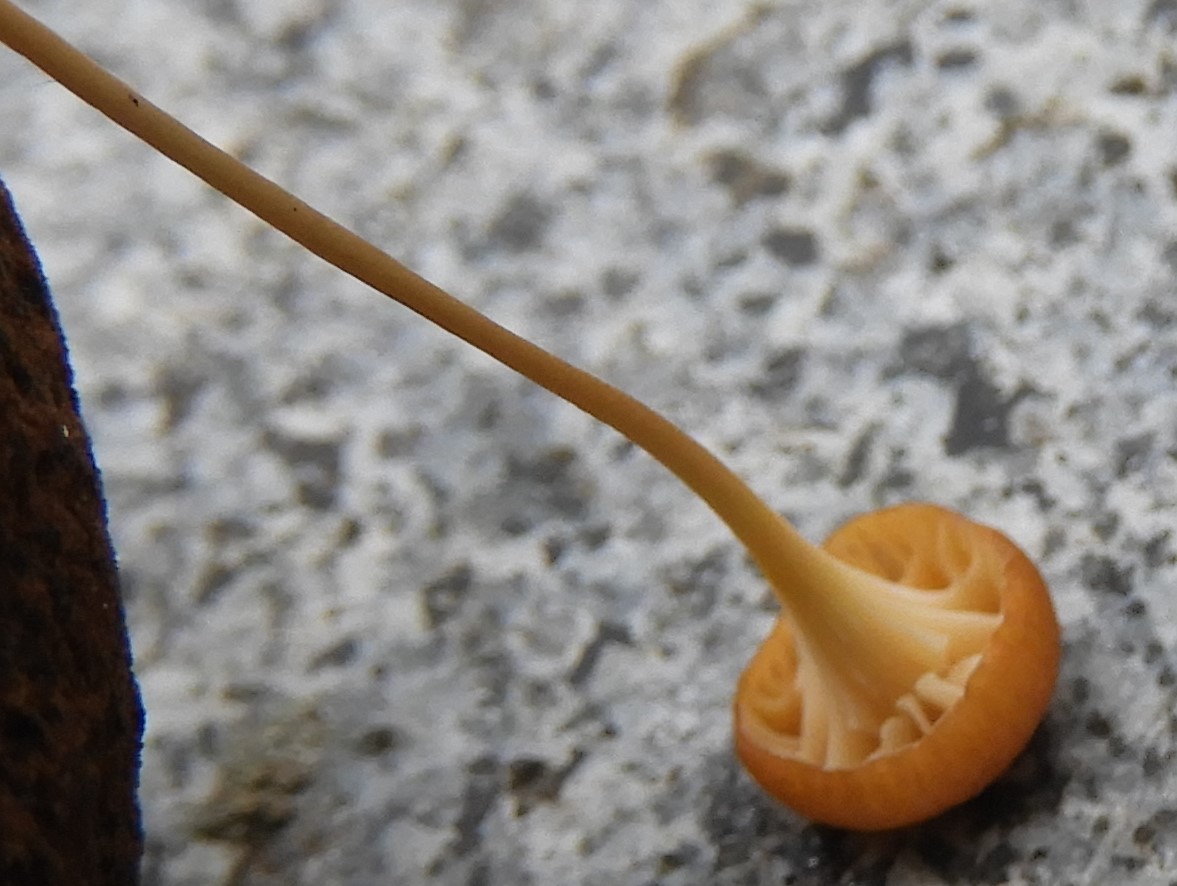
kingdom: Fungi
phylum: Basidiomycota
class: Agaricomycetes
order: Hymenochaetales
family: Rickenellaceae
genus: Rickenella
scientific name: Rickenella fibula
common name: orange mosnavlehat
